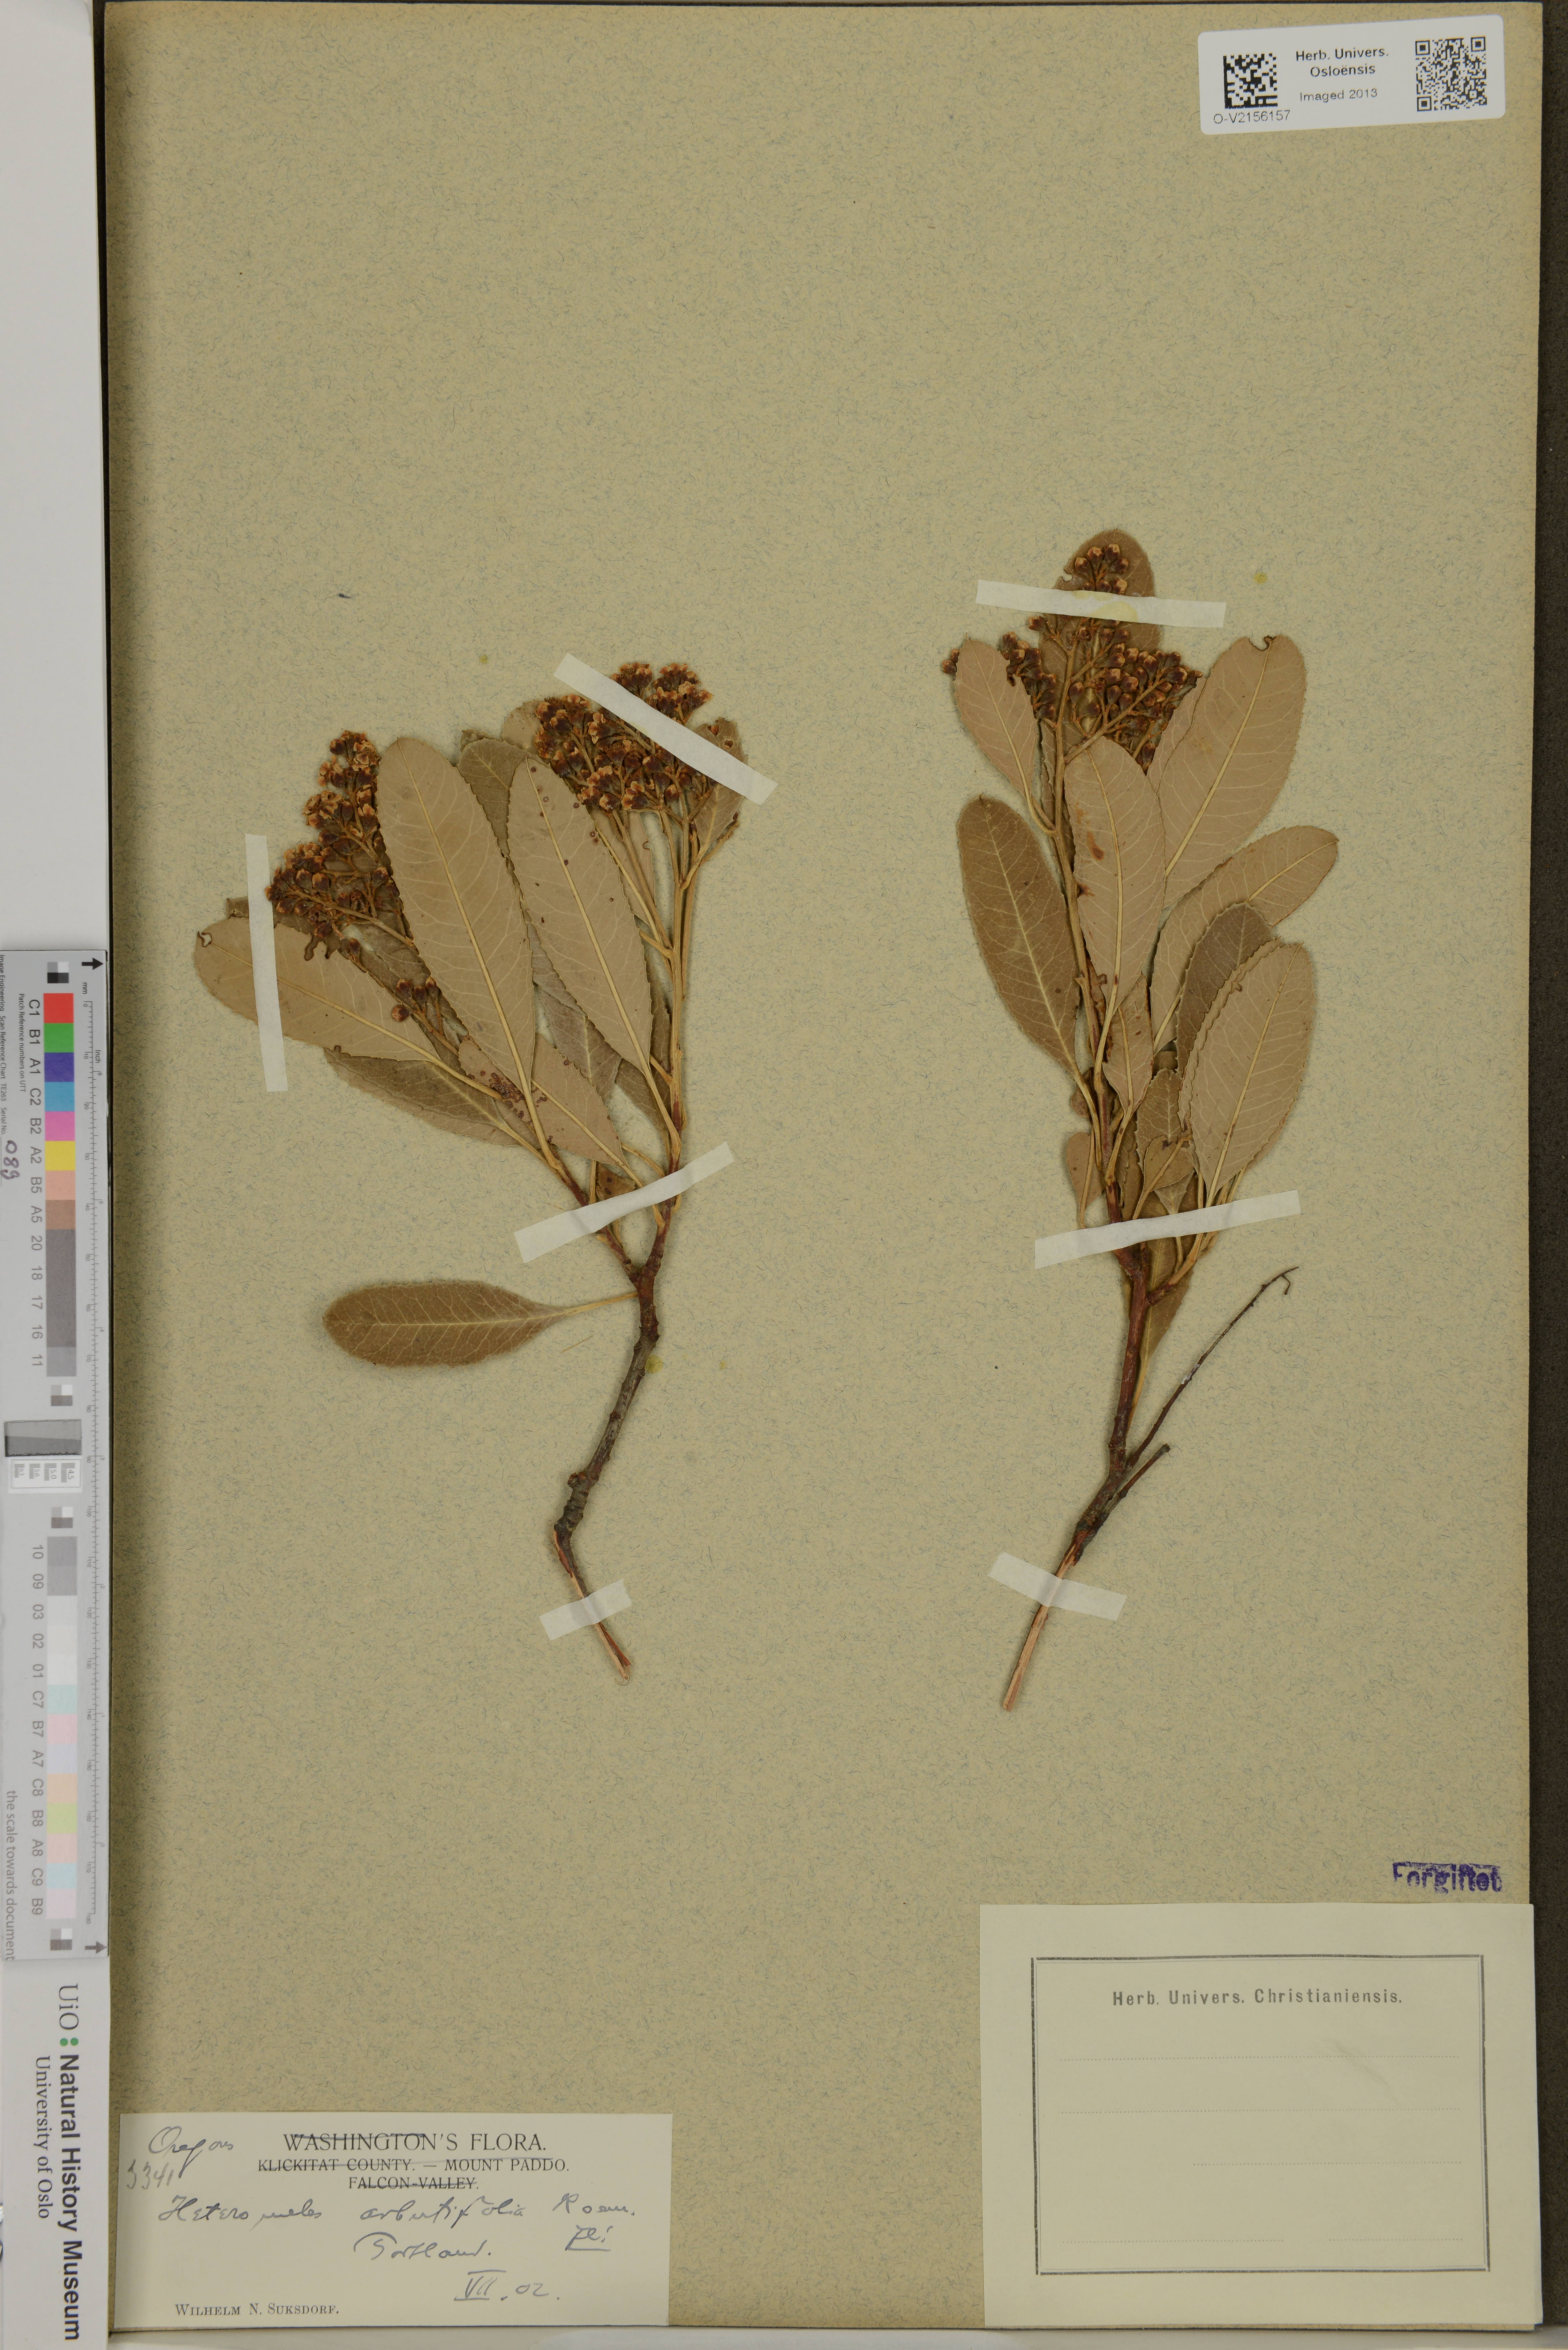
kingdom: Plantae
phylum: Tracheophyta
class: Magnoliopsida
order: Rosales
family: Rosaceae
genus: Heteromeles
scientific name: Heteromeles arbutifolia
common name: California-holly
